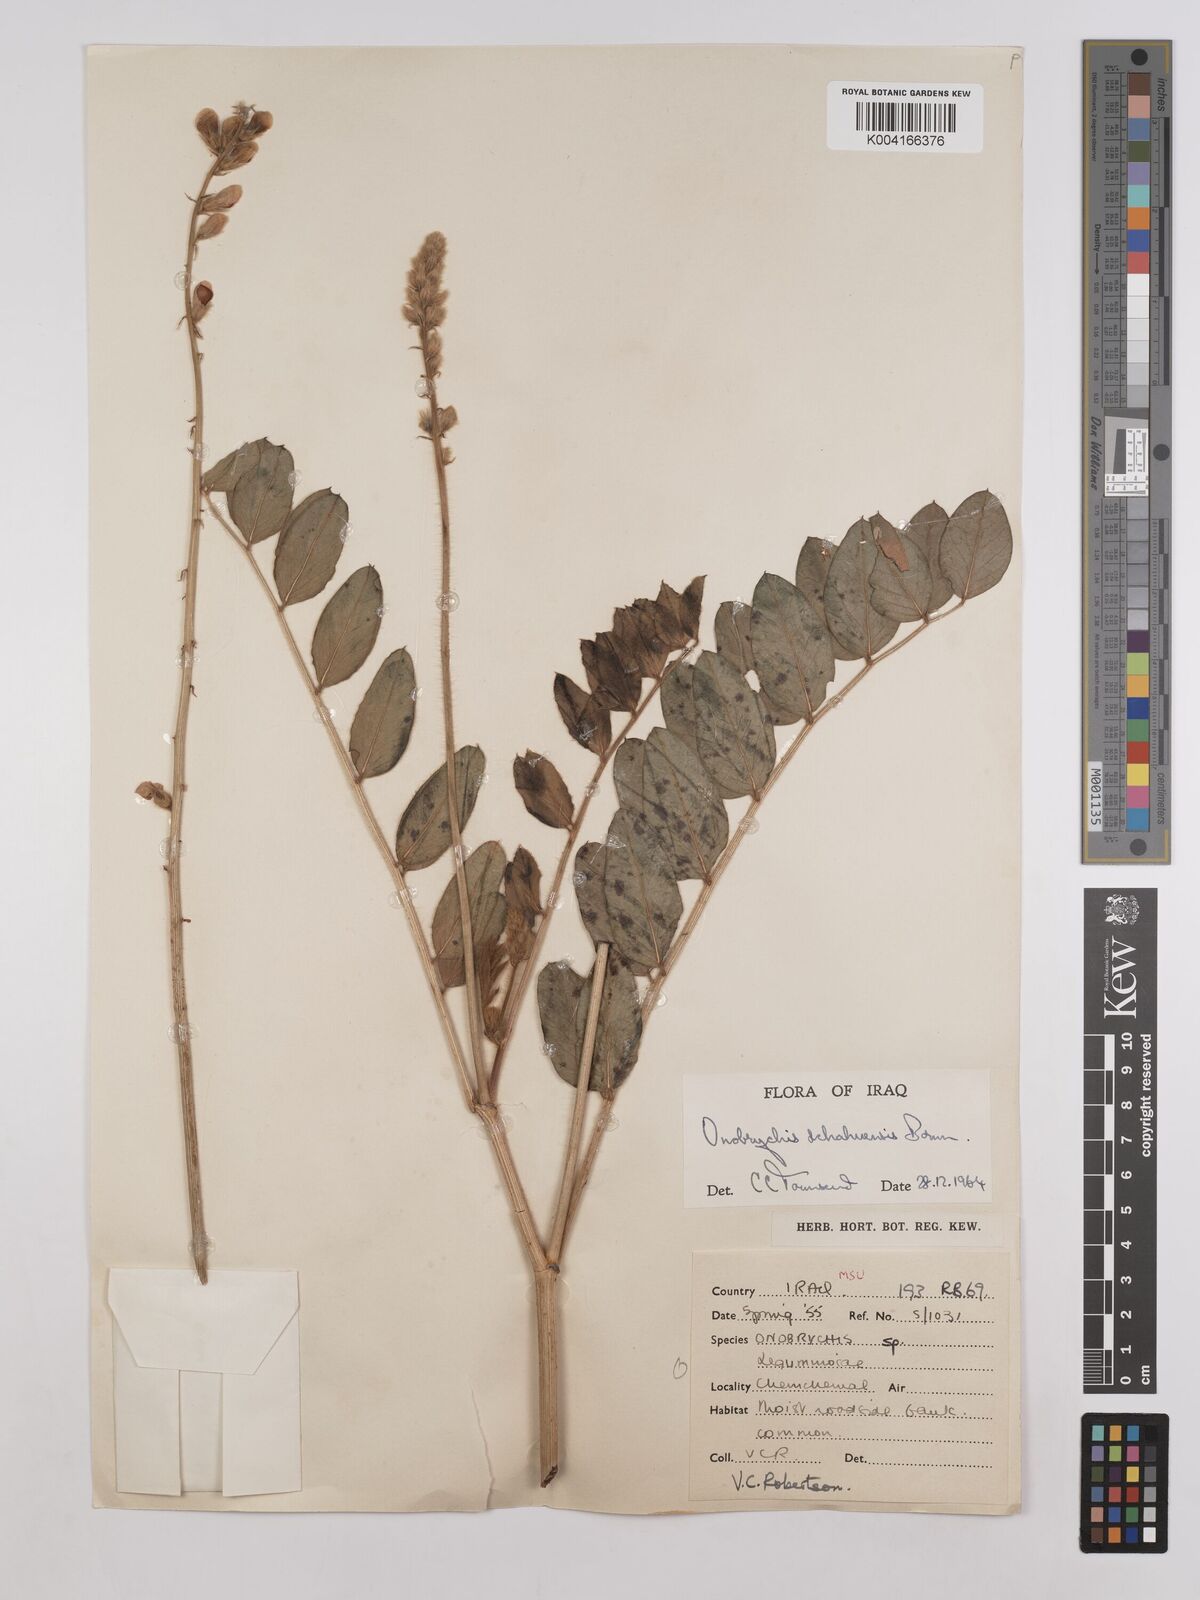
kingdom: Plantae
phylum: Tracheophyta
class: Magnoliopsida
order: Fabales
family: Fabaceae
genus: Onobrychis
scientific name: Onobrychis schahuensis
